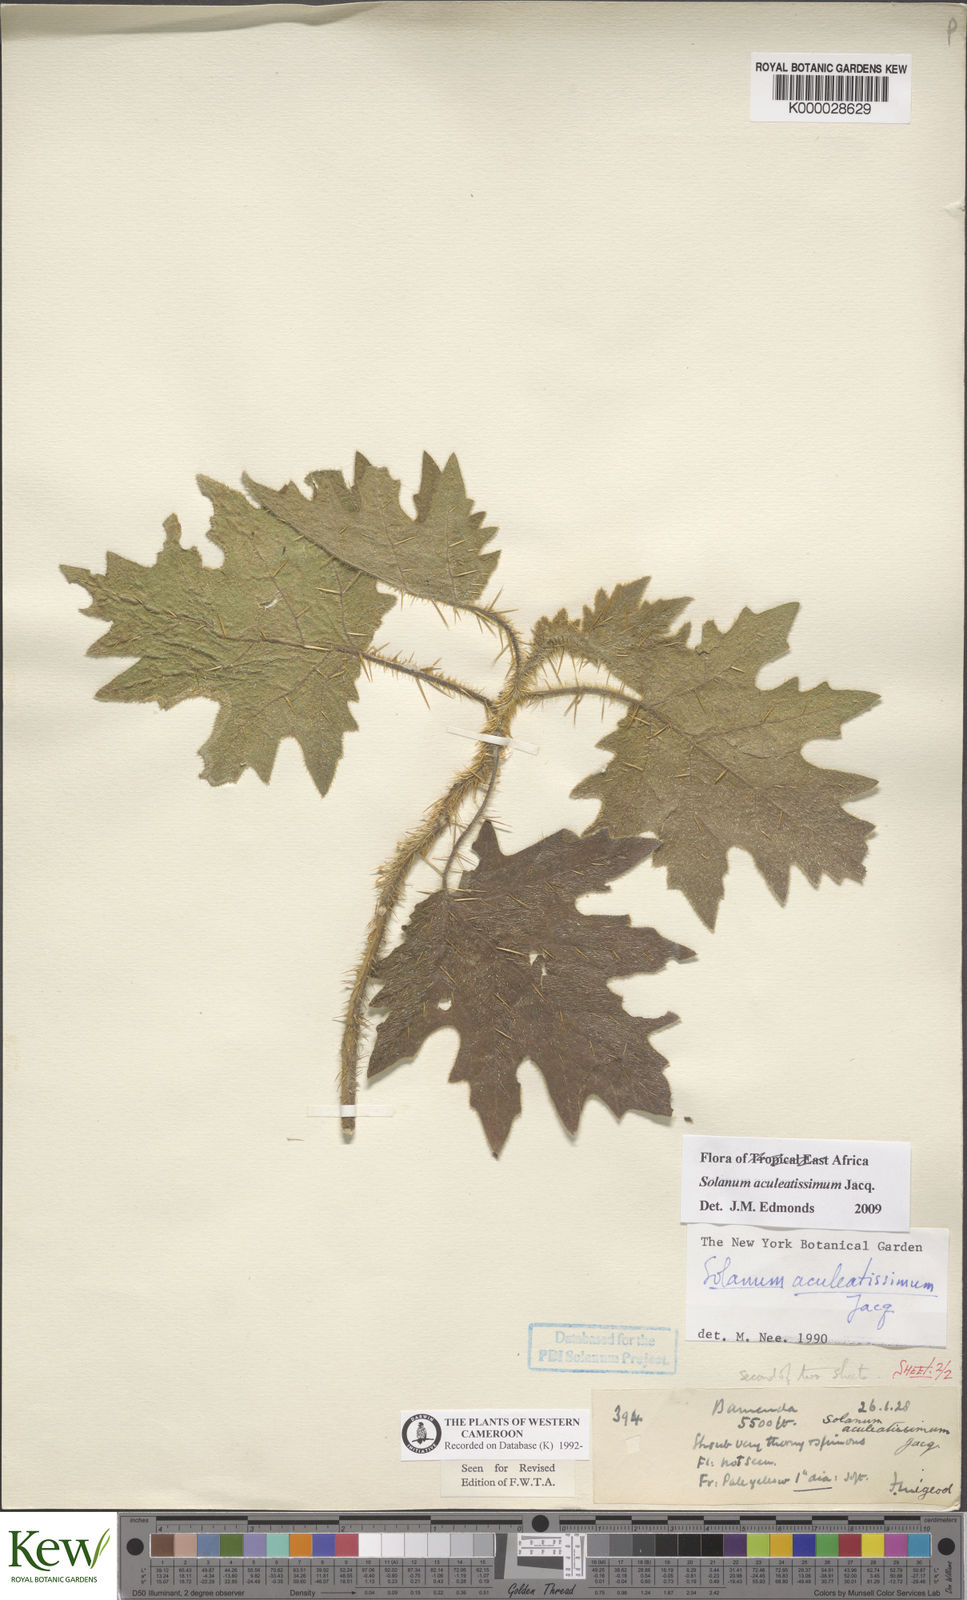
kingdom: Plantae
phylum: Tracheophyta
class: Magnoliopsida
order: Solanales
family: Solanaceae
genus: Solanum
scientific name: Solanum aculeatissimum
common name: Dutch eggplant
